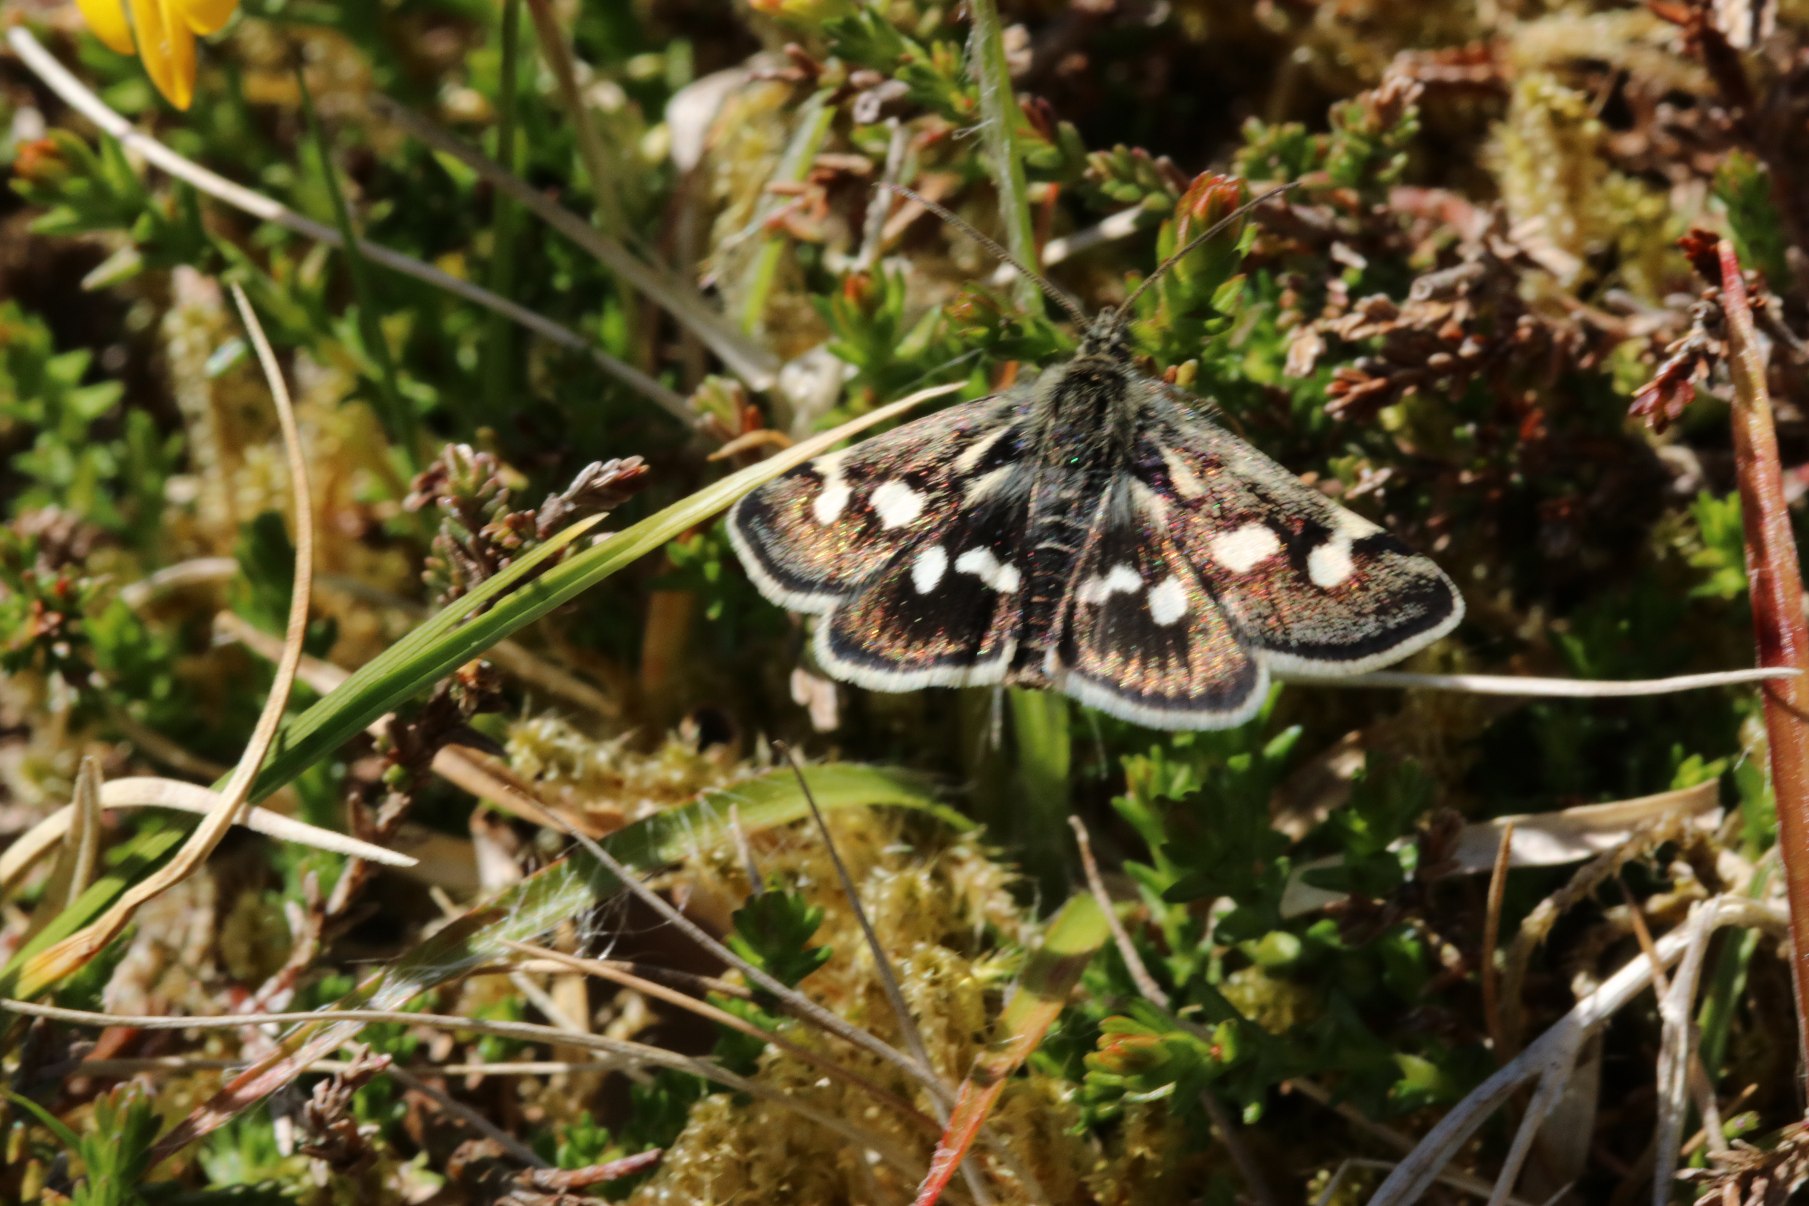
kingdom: Animalia
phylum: Arthropoda
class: Insecta
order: Lepidoptera
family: Crambidae
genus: Eurrhypis
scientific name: Eurrhypis pollinalis
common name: Vissehalvmøl
